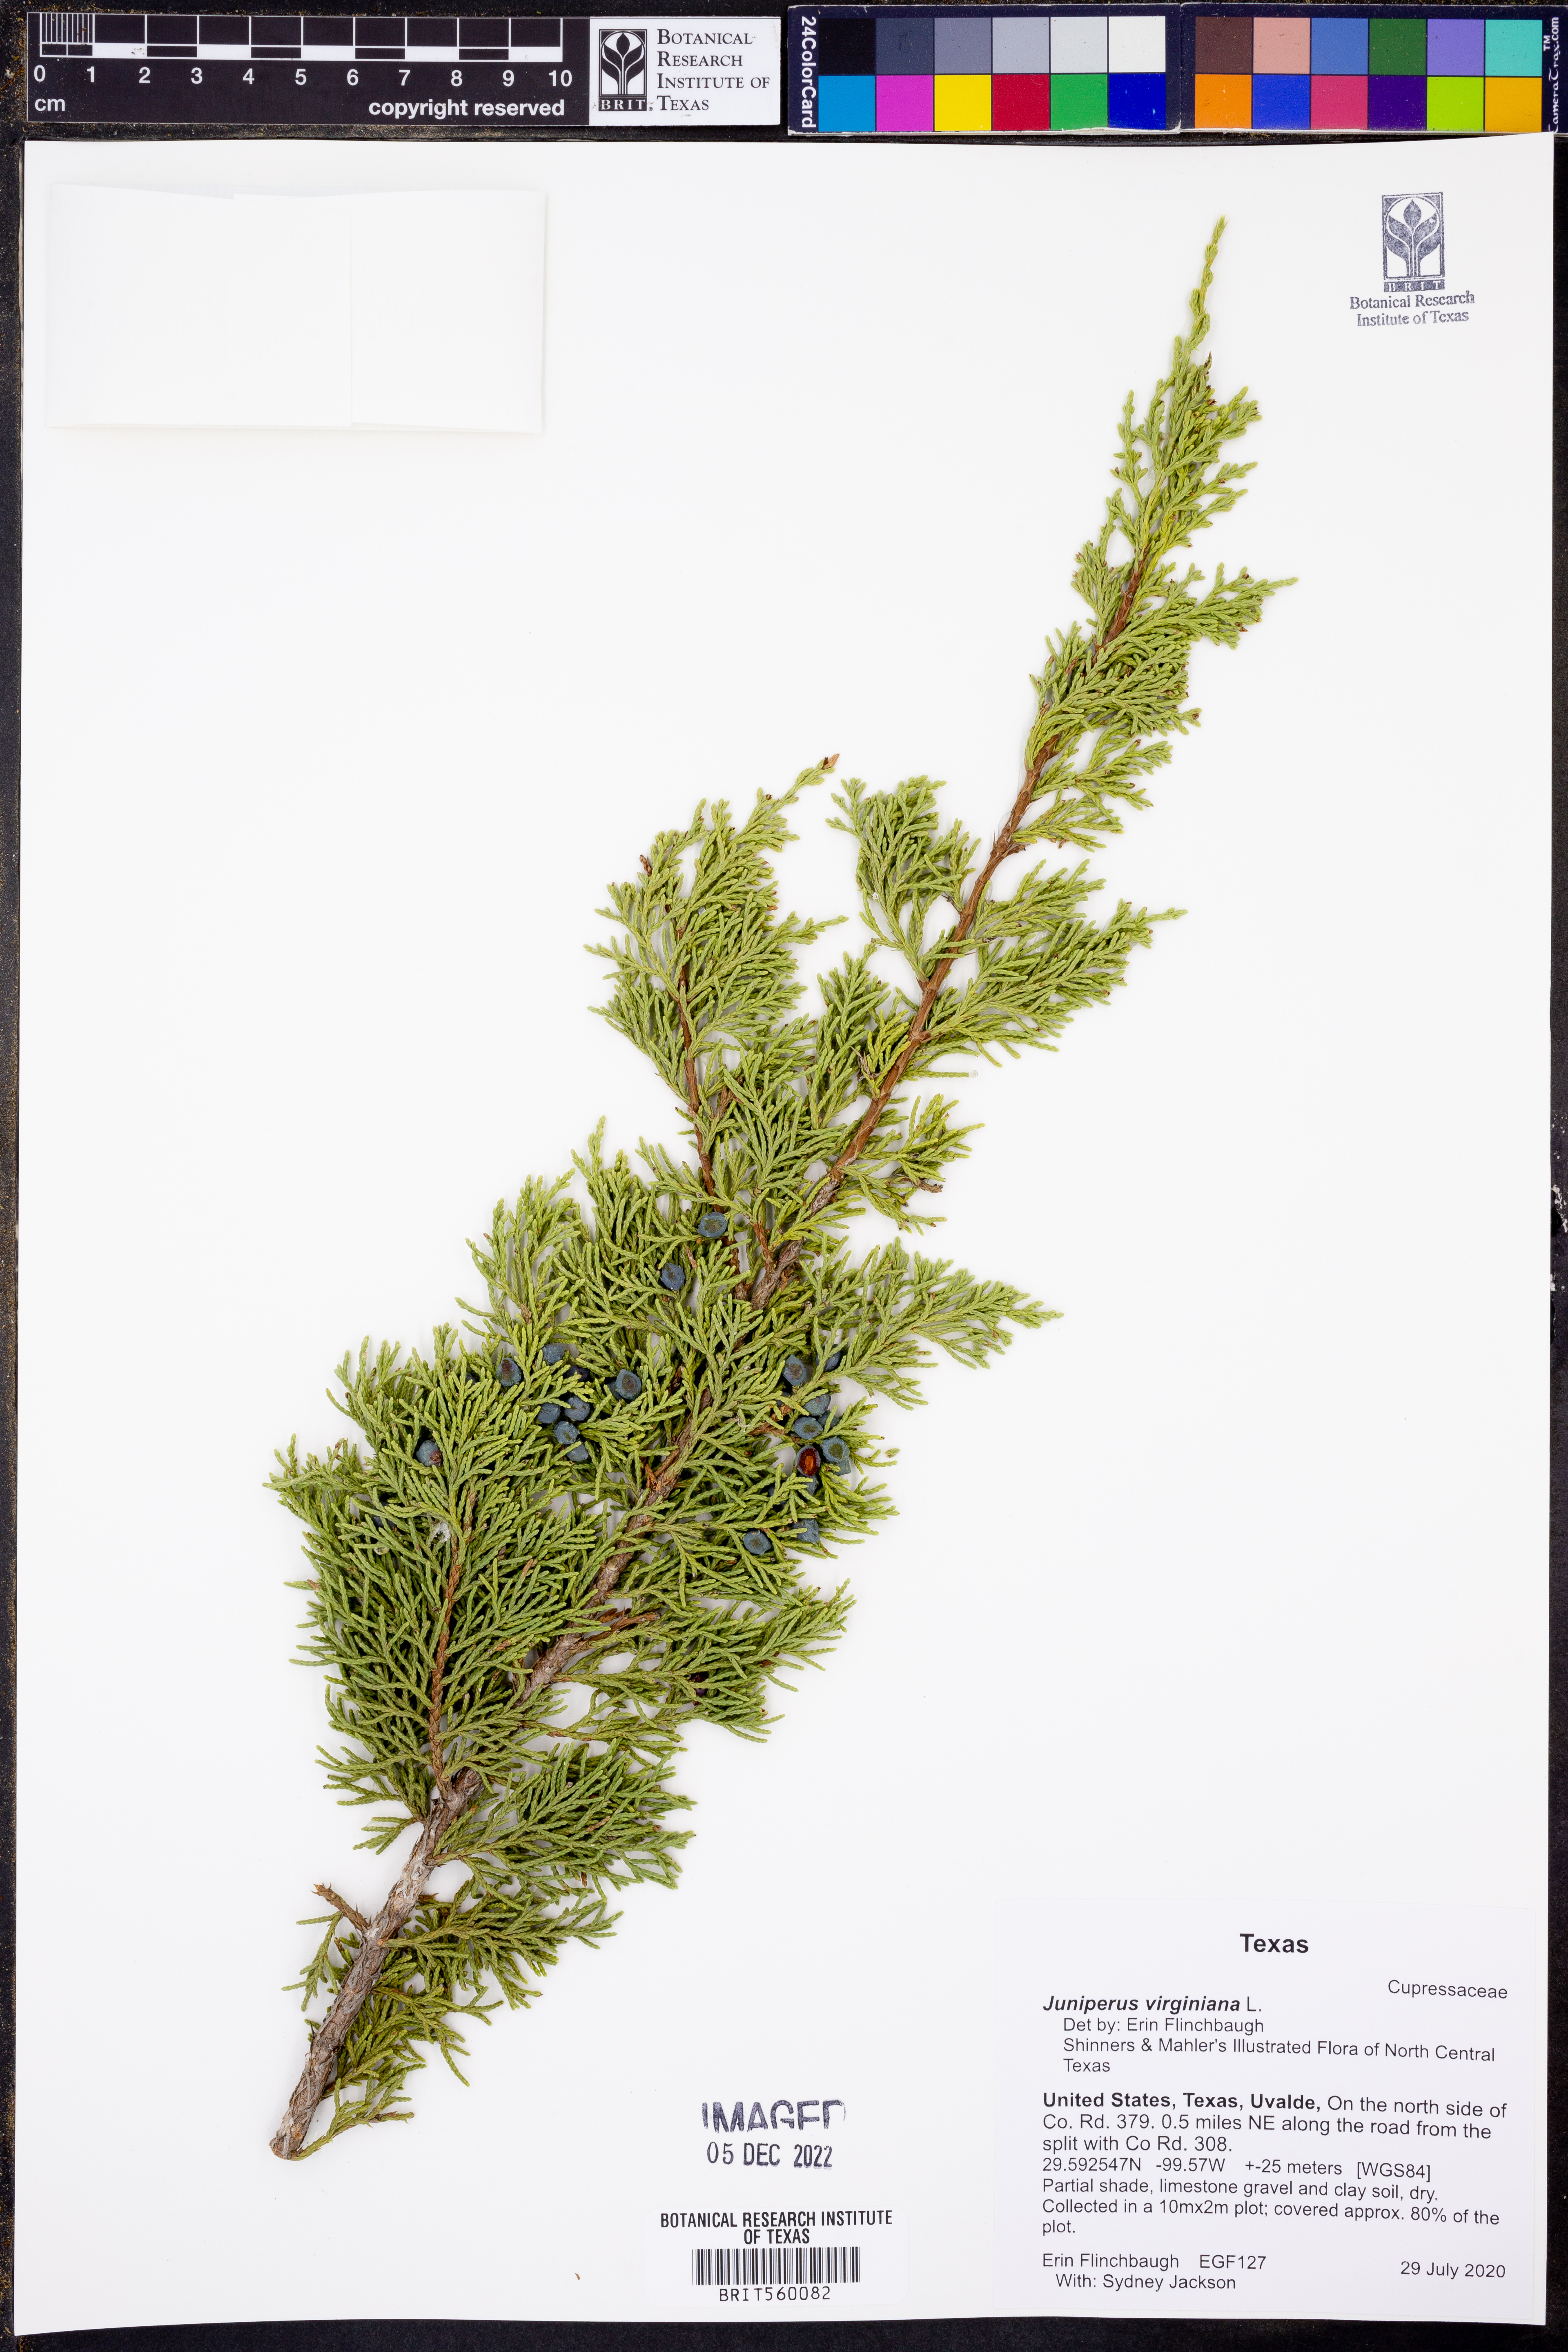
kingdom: Plantae
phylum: Tracheophyta
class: Pinopsida
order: Pinales
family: Cupressaceae
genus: Juniperus
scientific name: Juniperus virginiana
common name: Red juniper
